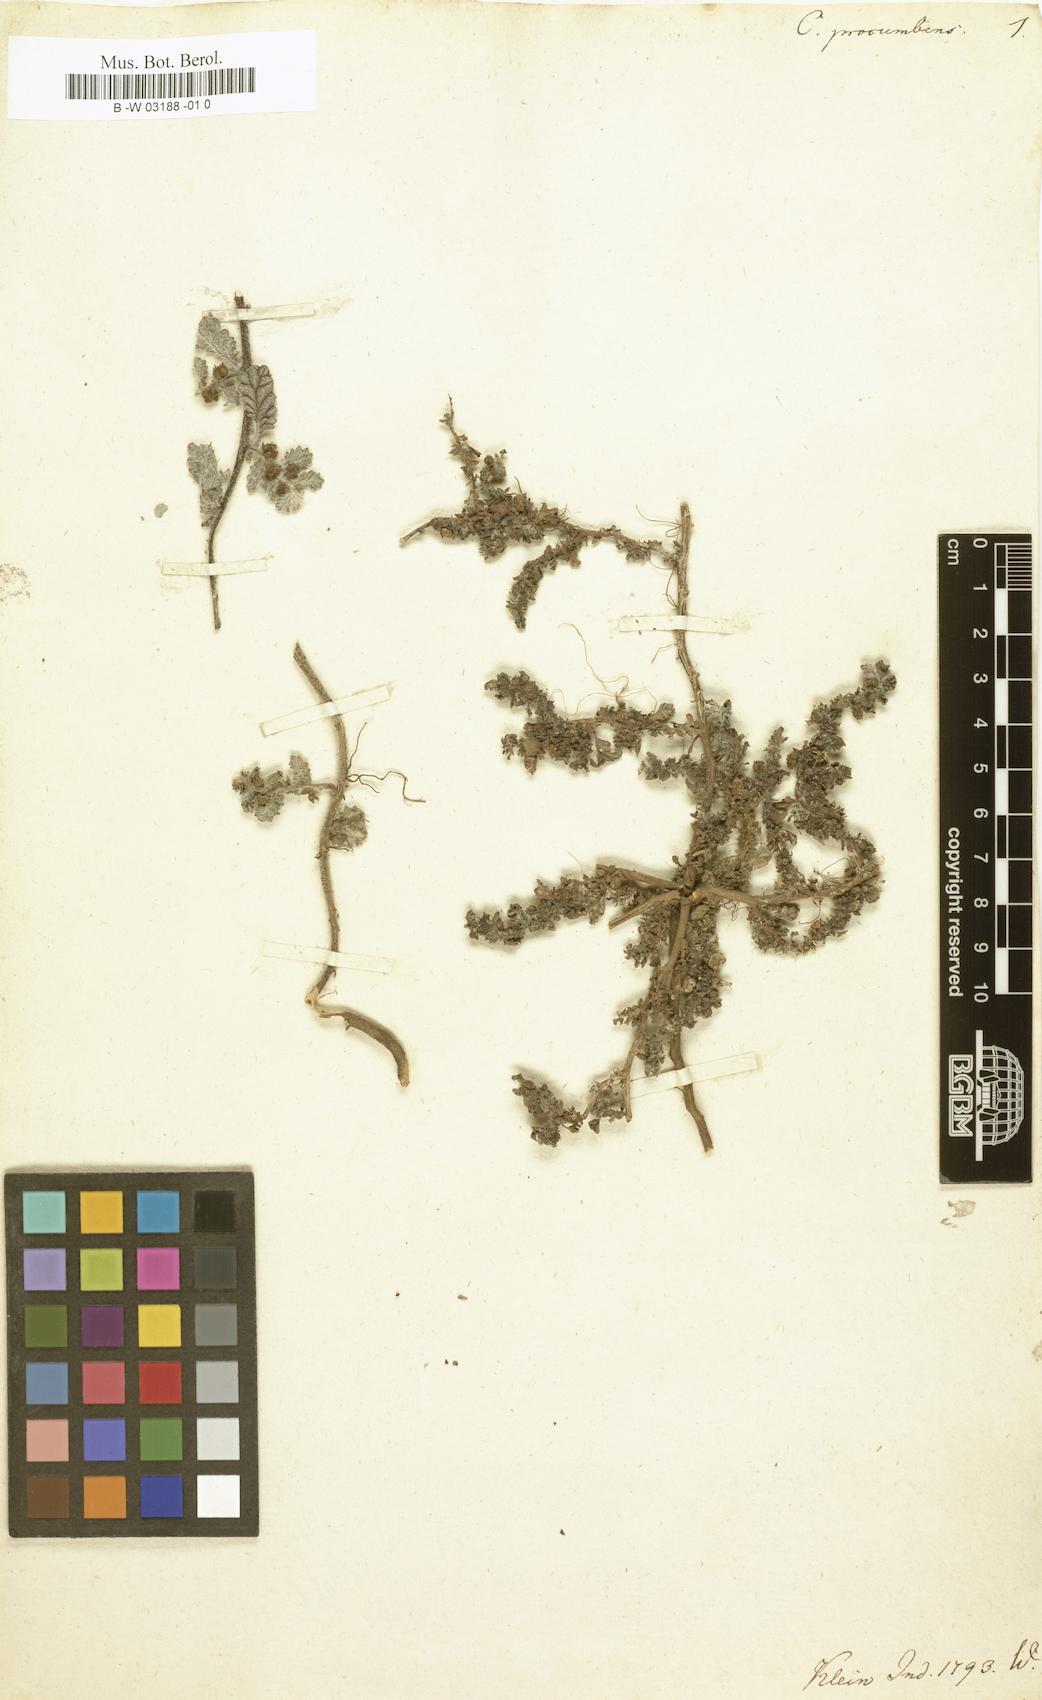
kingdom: Plantae
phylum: Tracheophyta
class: Magnoliopsida
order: Boraginales
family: Coldeniaceae
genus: Coldenia
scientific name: Coldenia procumbens
